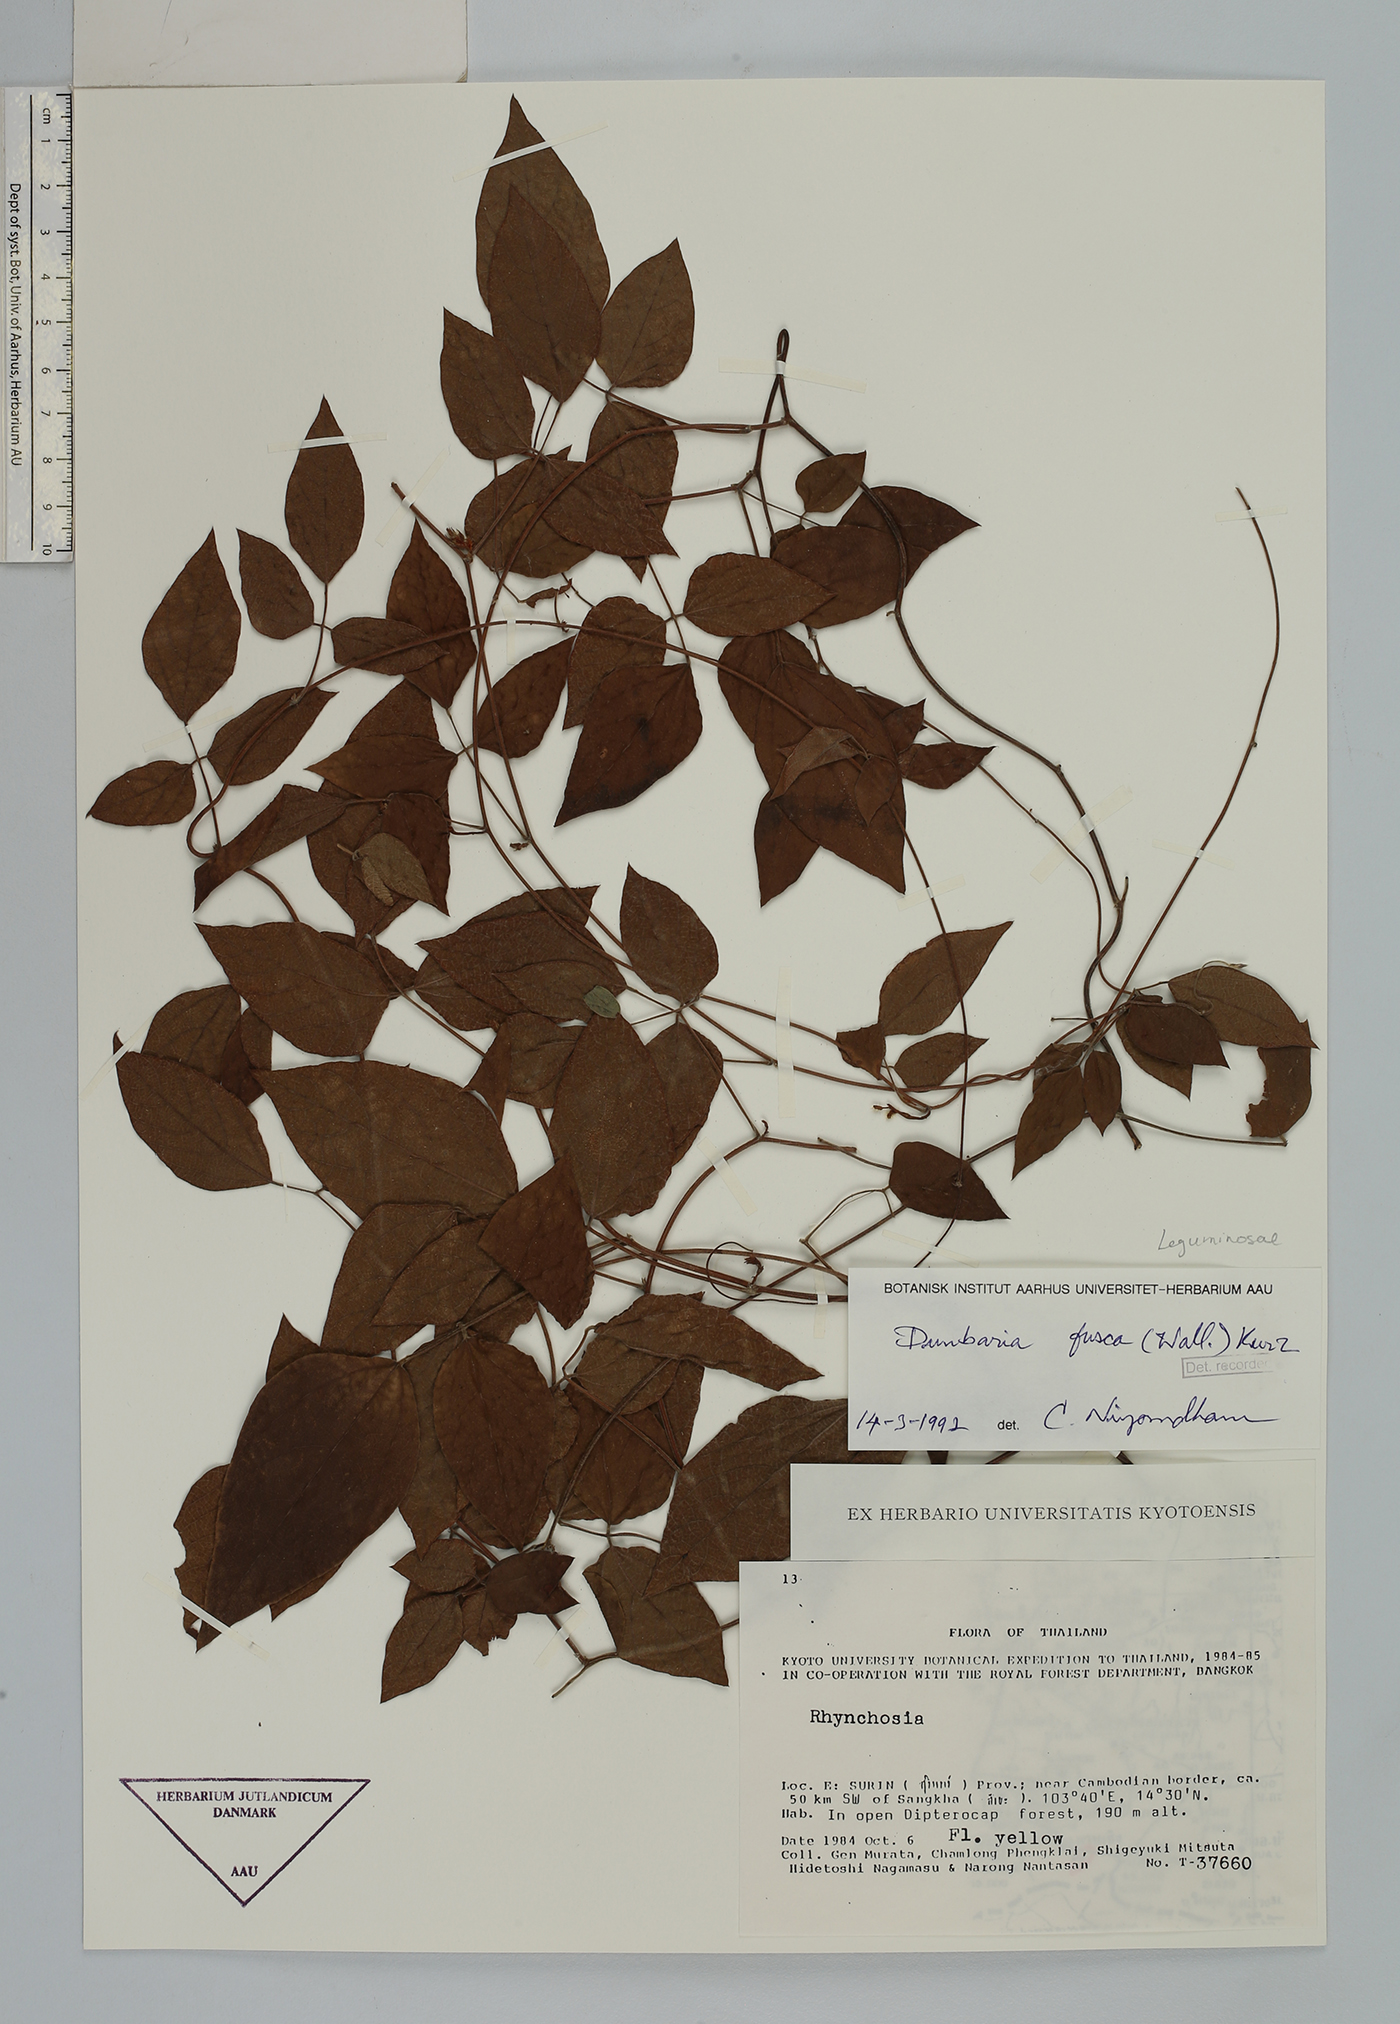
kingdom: Plantae
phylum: Tracheophyta
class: Magnoliopsida
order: Fabales
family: Fabaceae
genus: Dunbaria
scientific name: Dunbaria fusca
